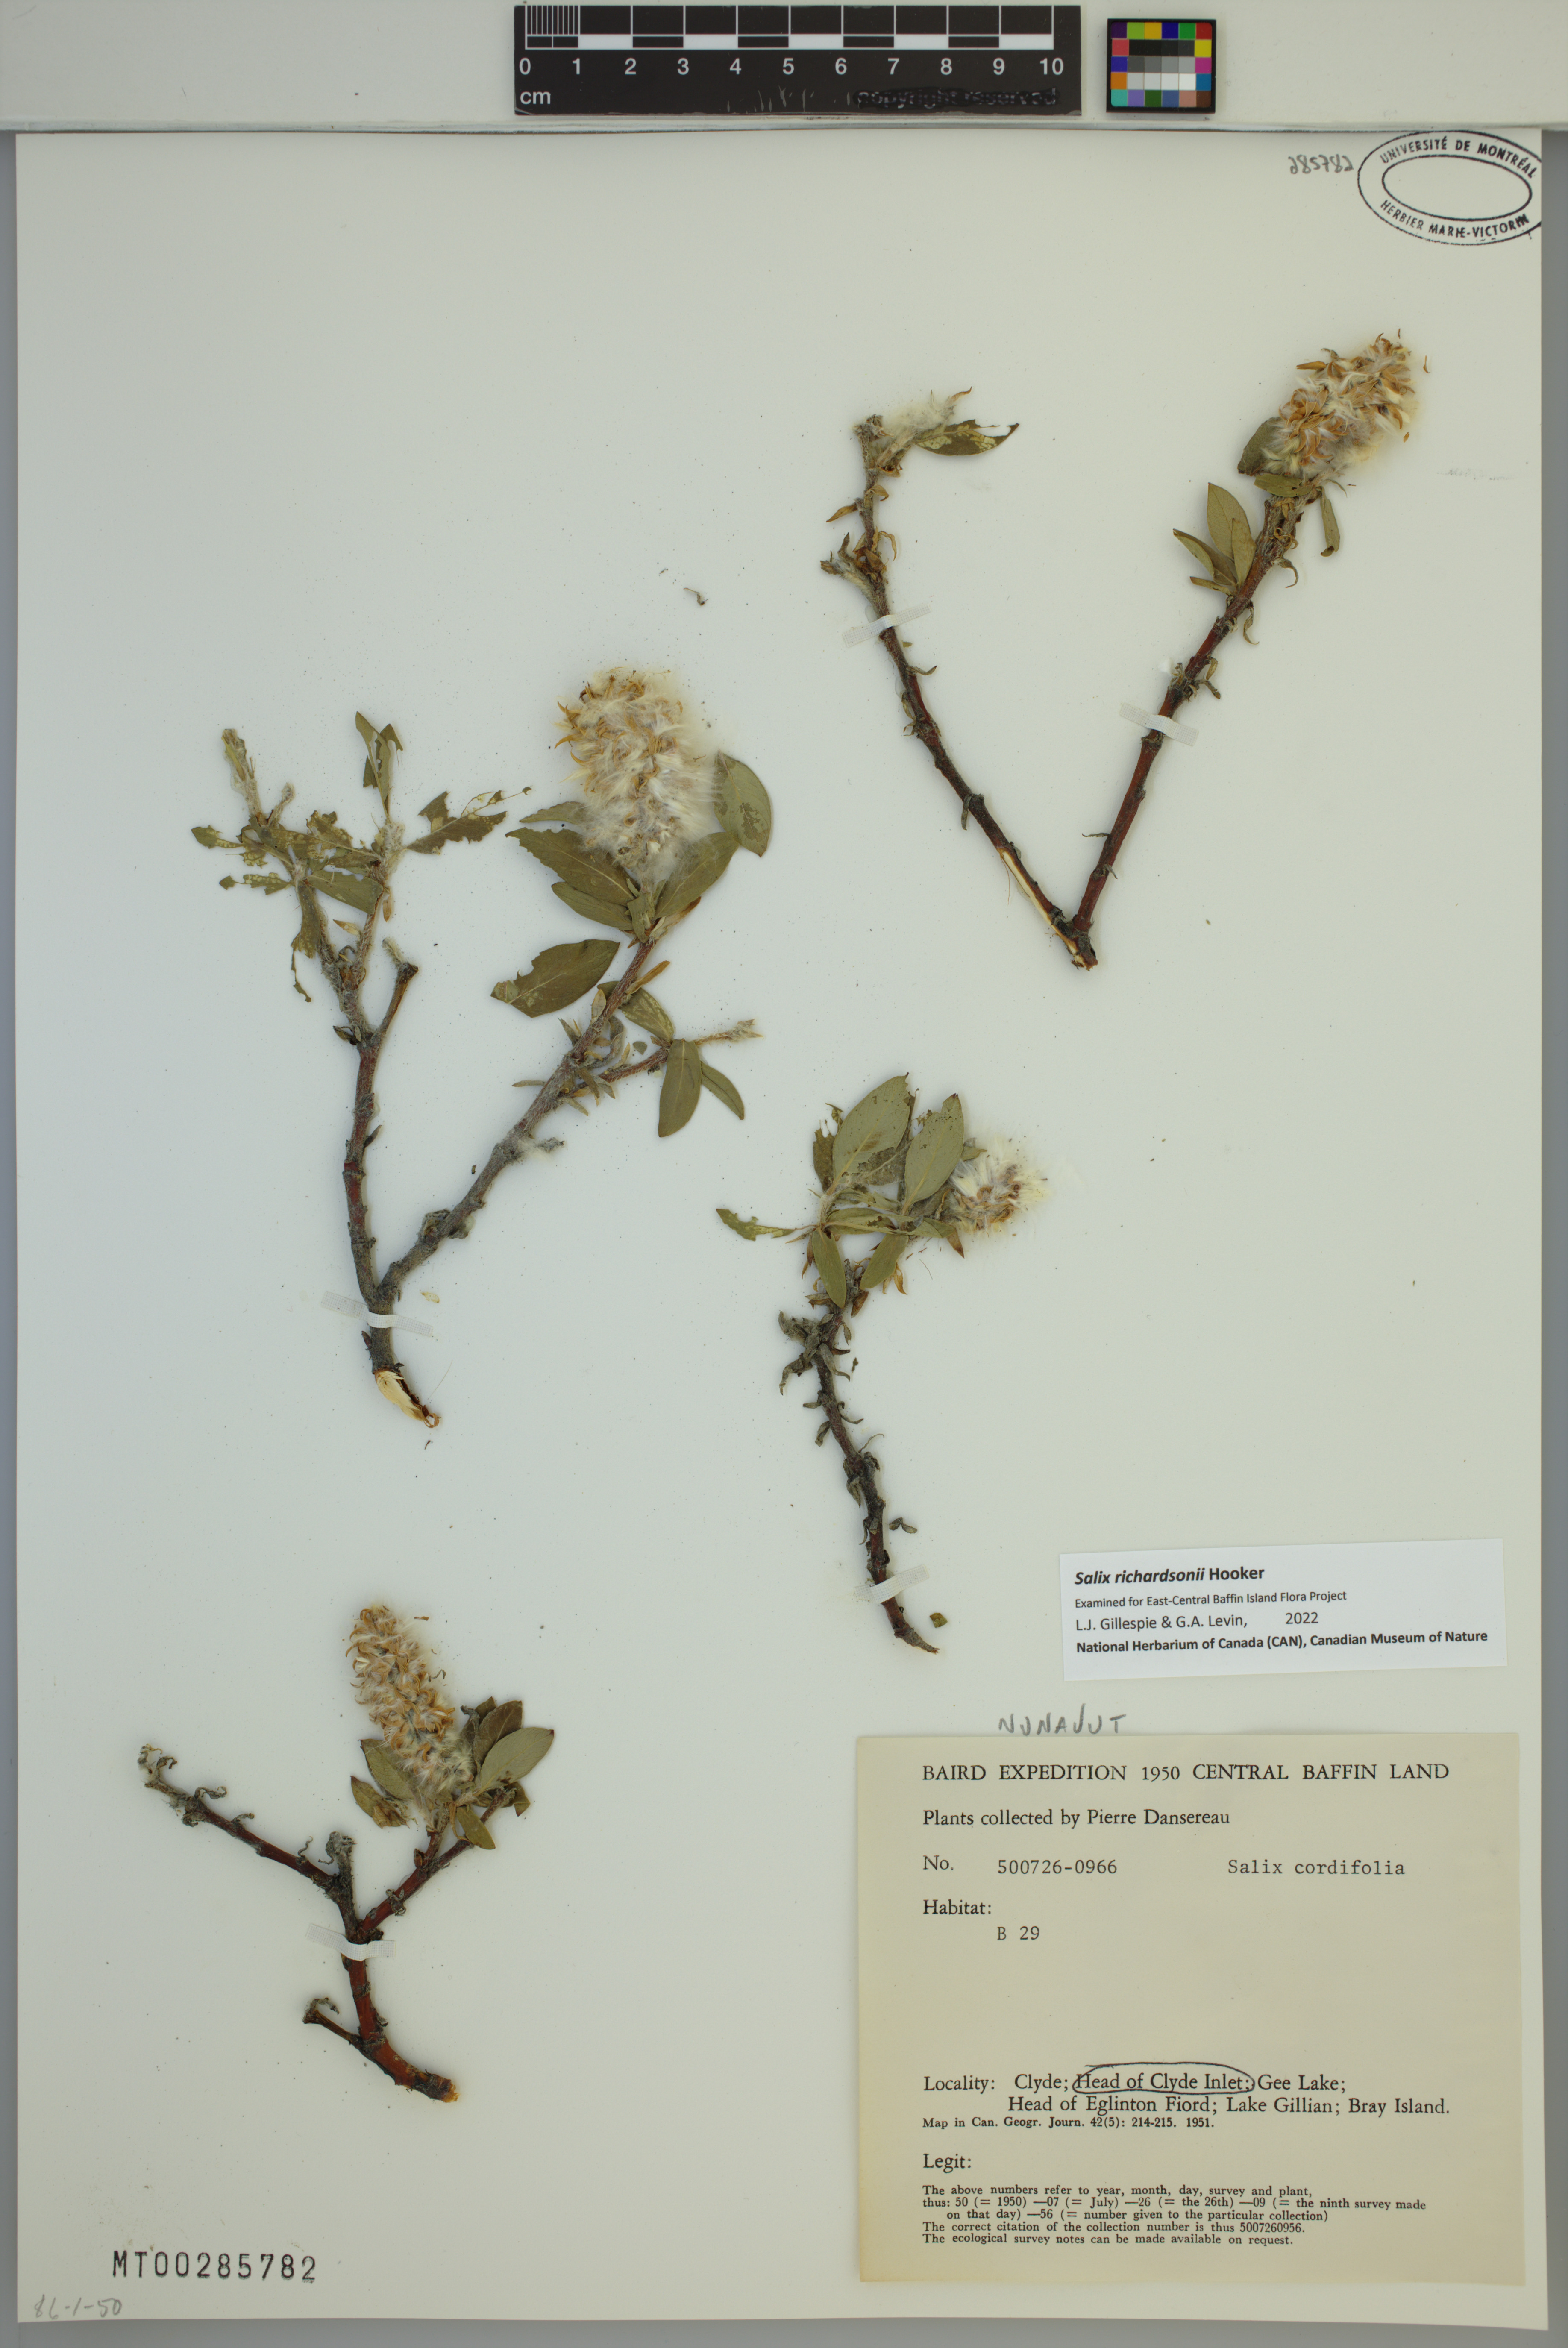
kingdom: Plantae
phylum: Tracheophyta
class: Magnoliopsida
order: Malpighiales
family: Salicaceae
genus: Salix
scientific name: Salix richardsonii
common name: Richardson’s willow
